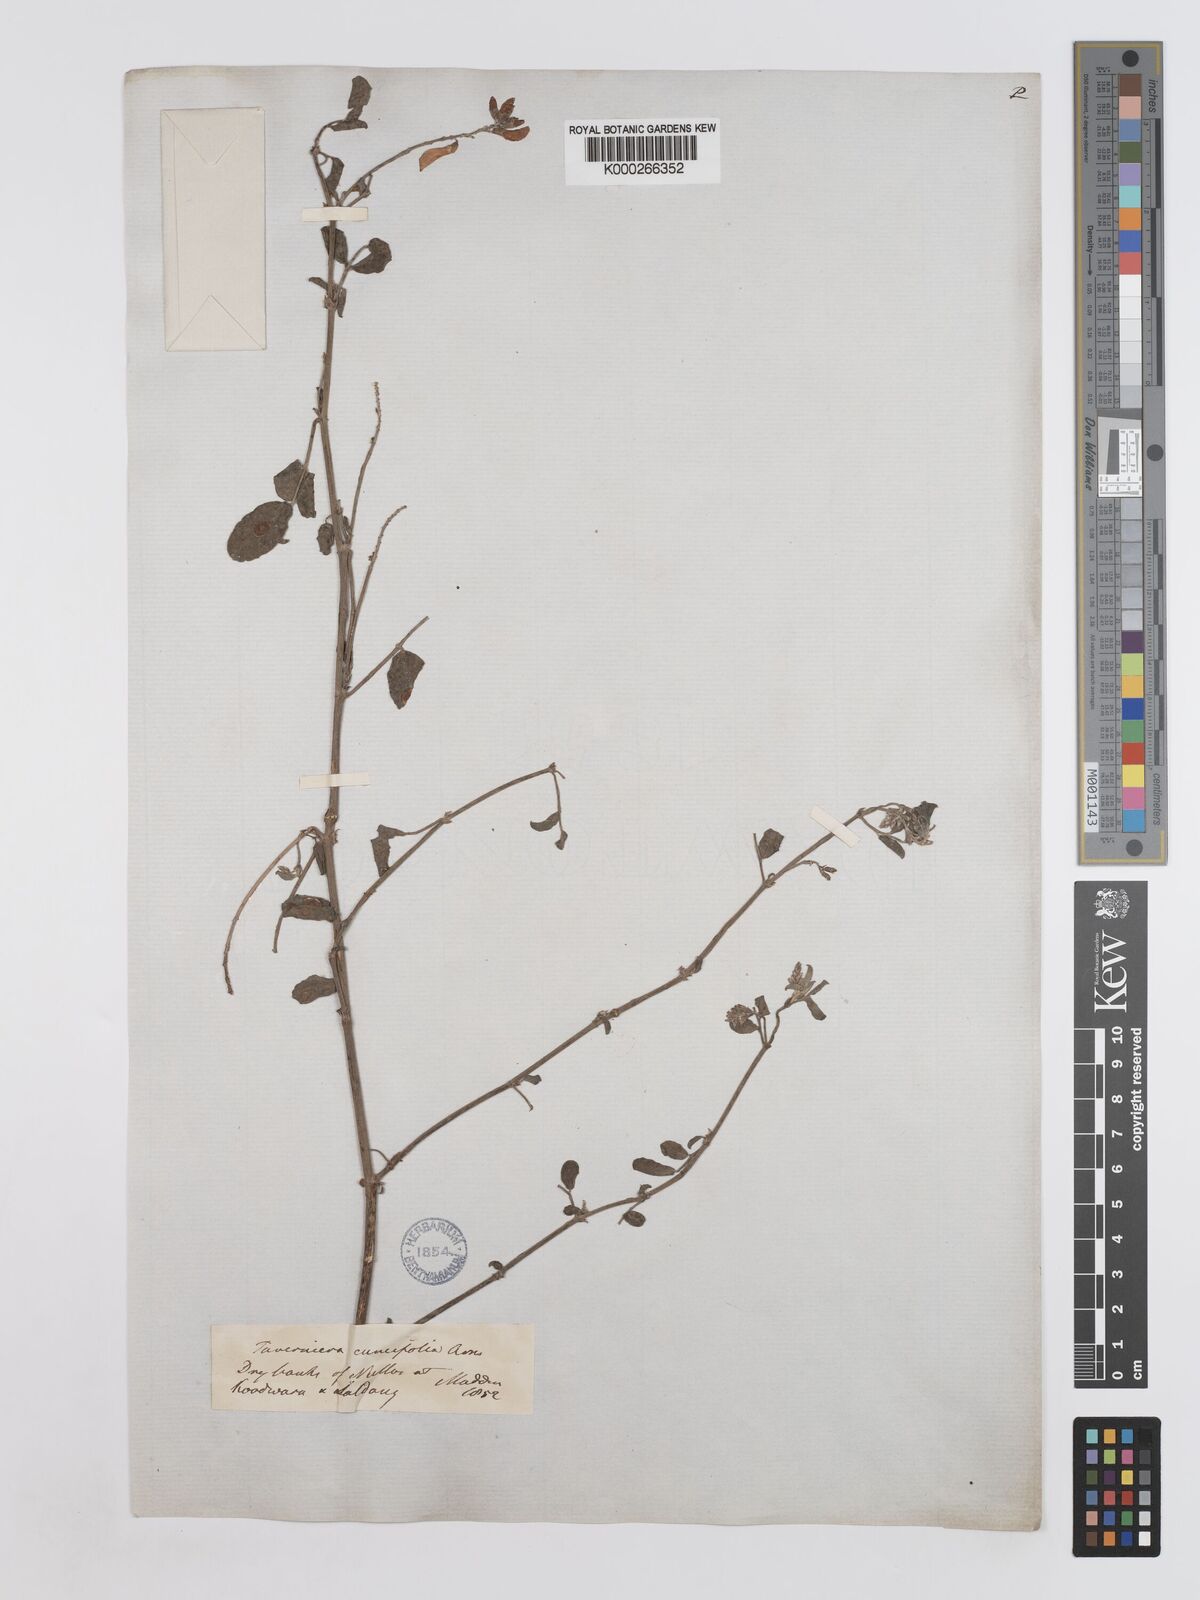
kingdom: Plantae
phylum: Tracheophyta
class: Magnoliopsida
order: Fabales
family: Fabaceae
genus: Taverniera
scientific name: Taverniera nummularia
